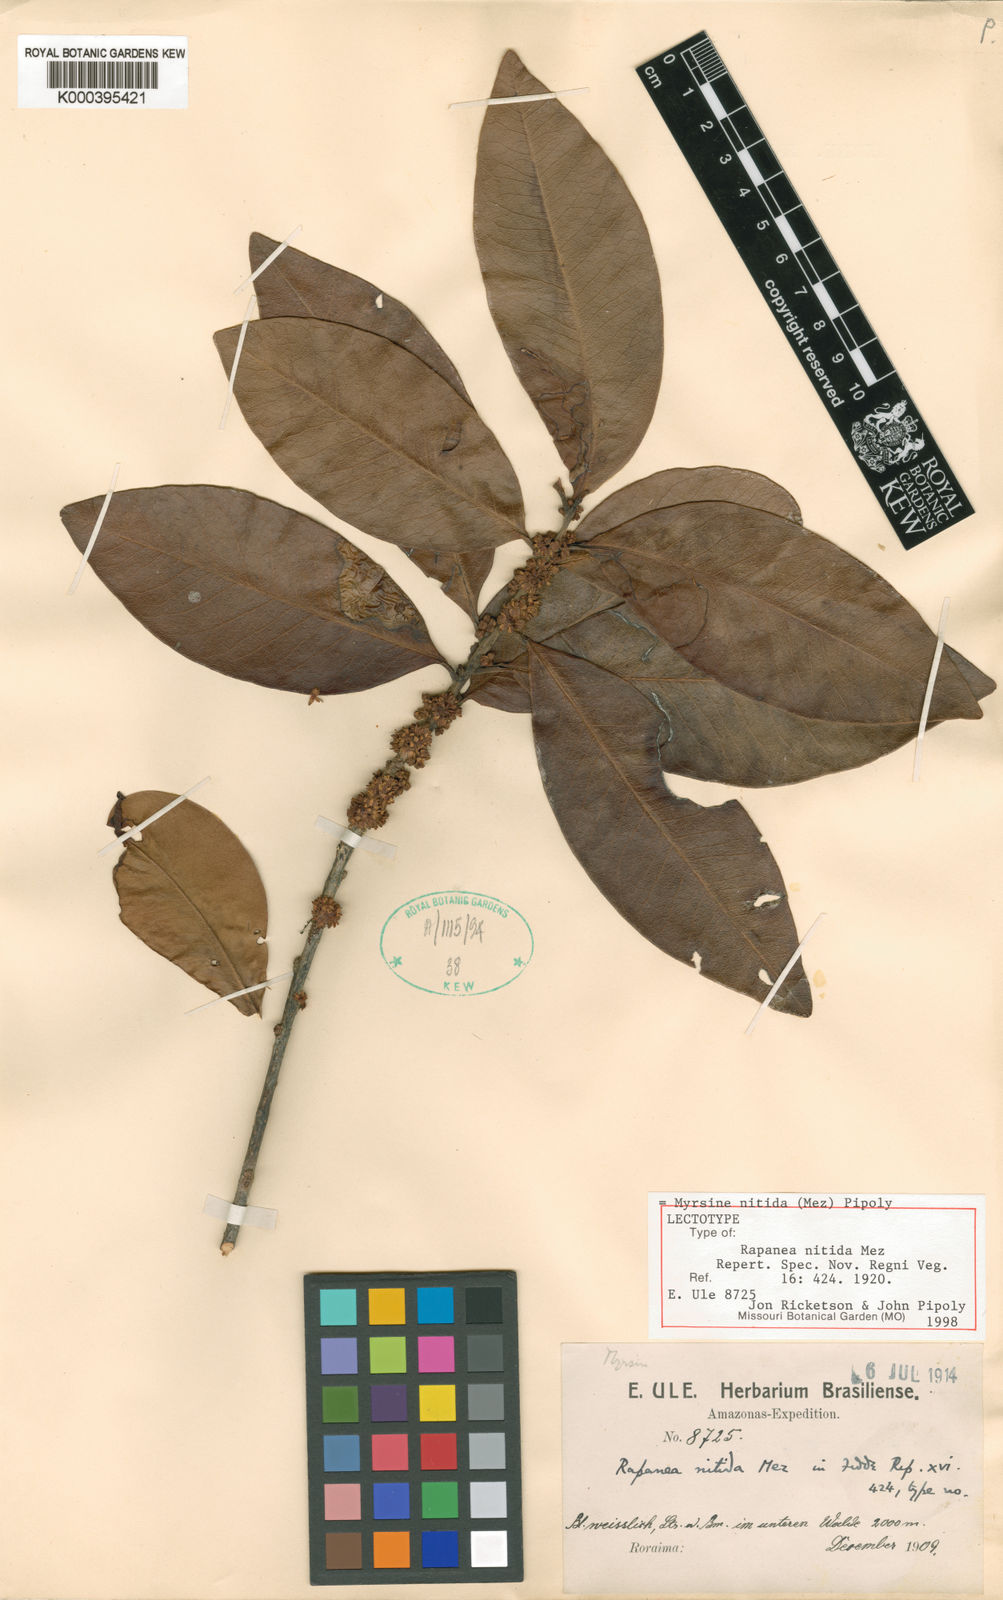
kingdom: Plantae
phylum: Tracheophyta
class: Magnoliopsida
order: Ericales
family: Primulaceae
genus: Myrsine
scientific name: Myrsine nitida
